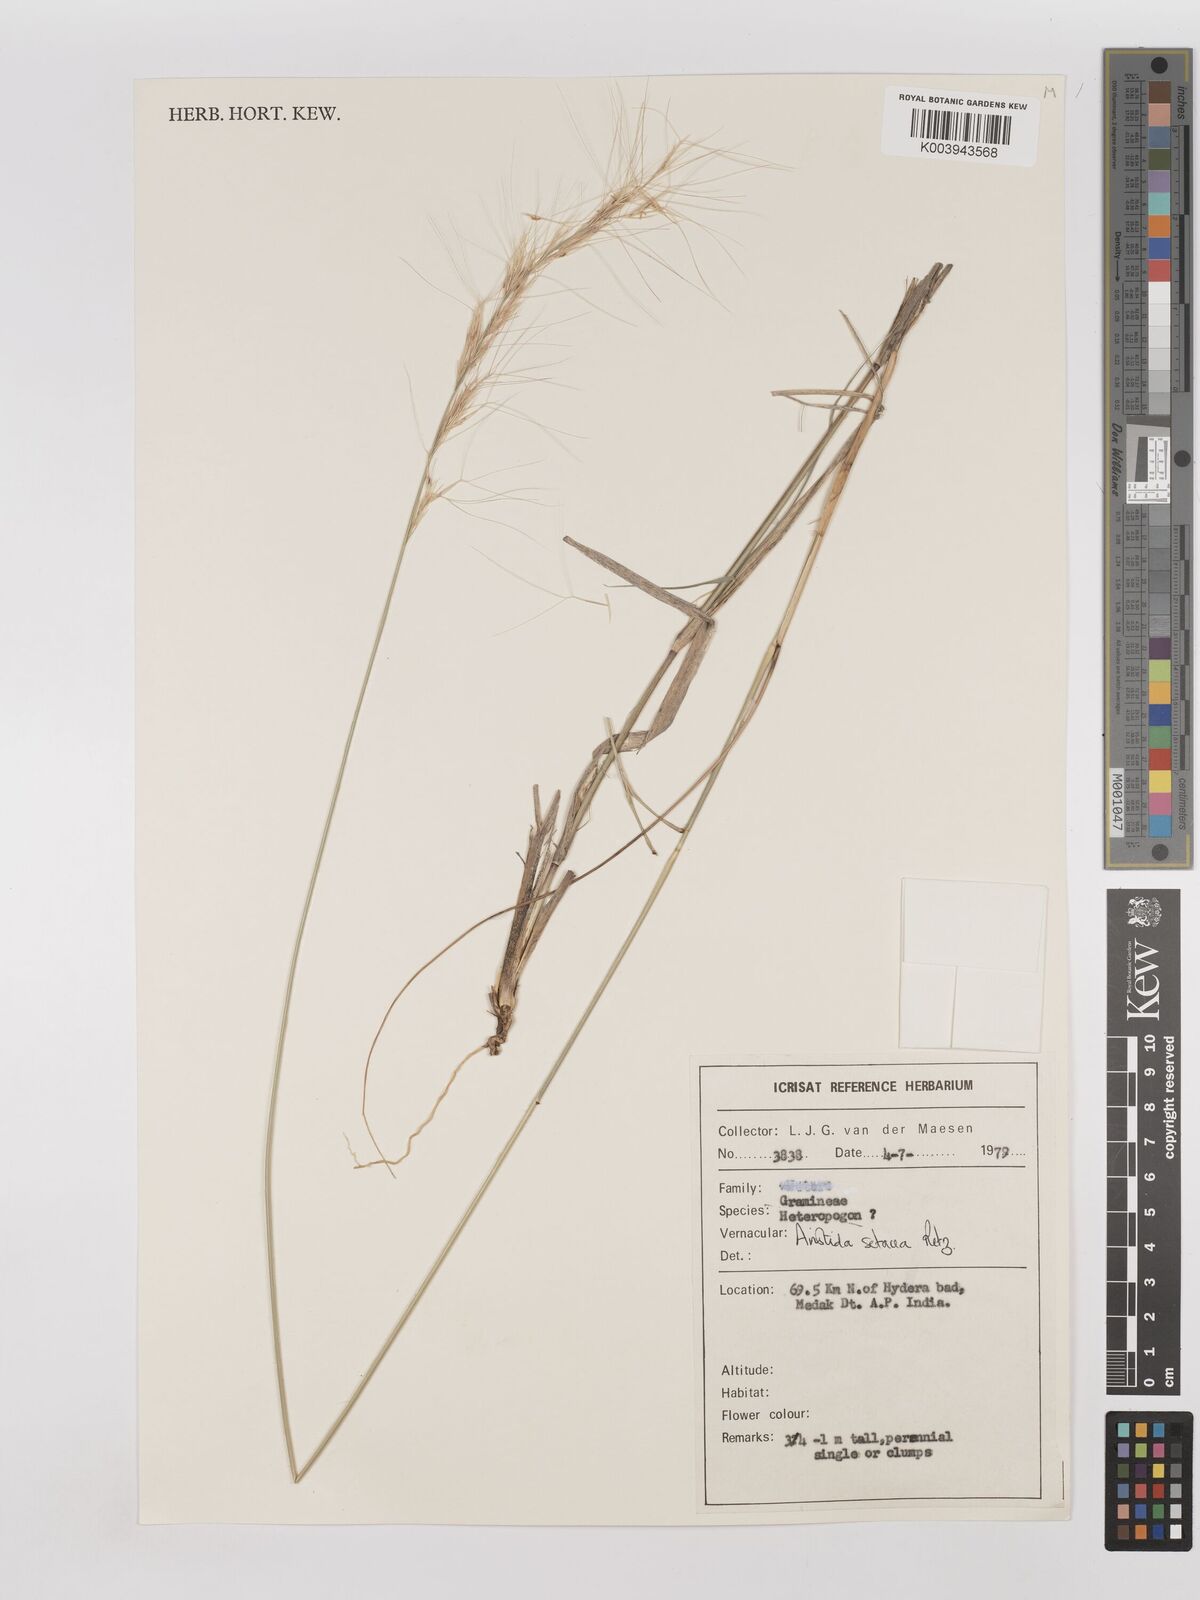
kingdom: Plantae
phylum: Tracheophyta
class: Liliopsida
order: Poales
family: Poaceae
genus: Aristida
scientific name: Aristida setacea
